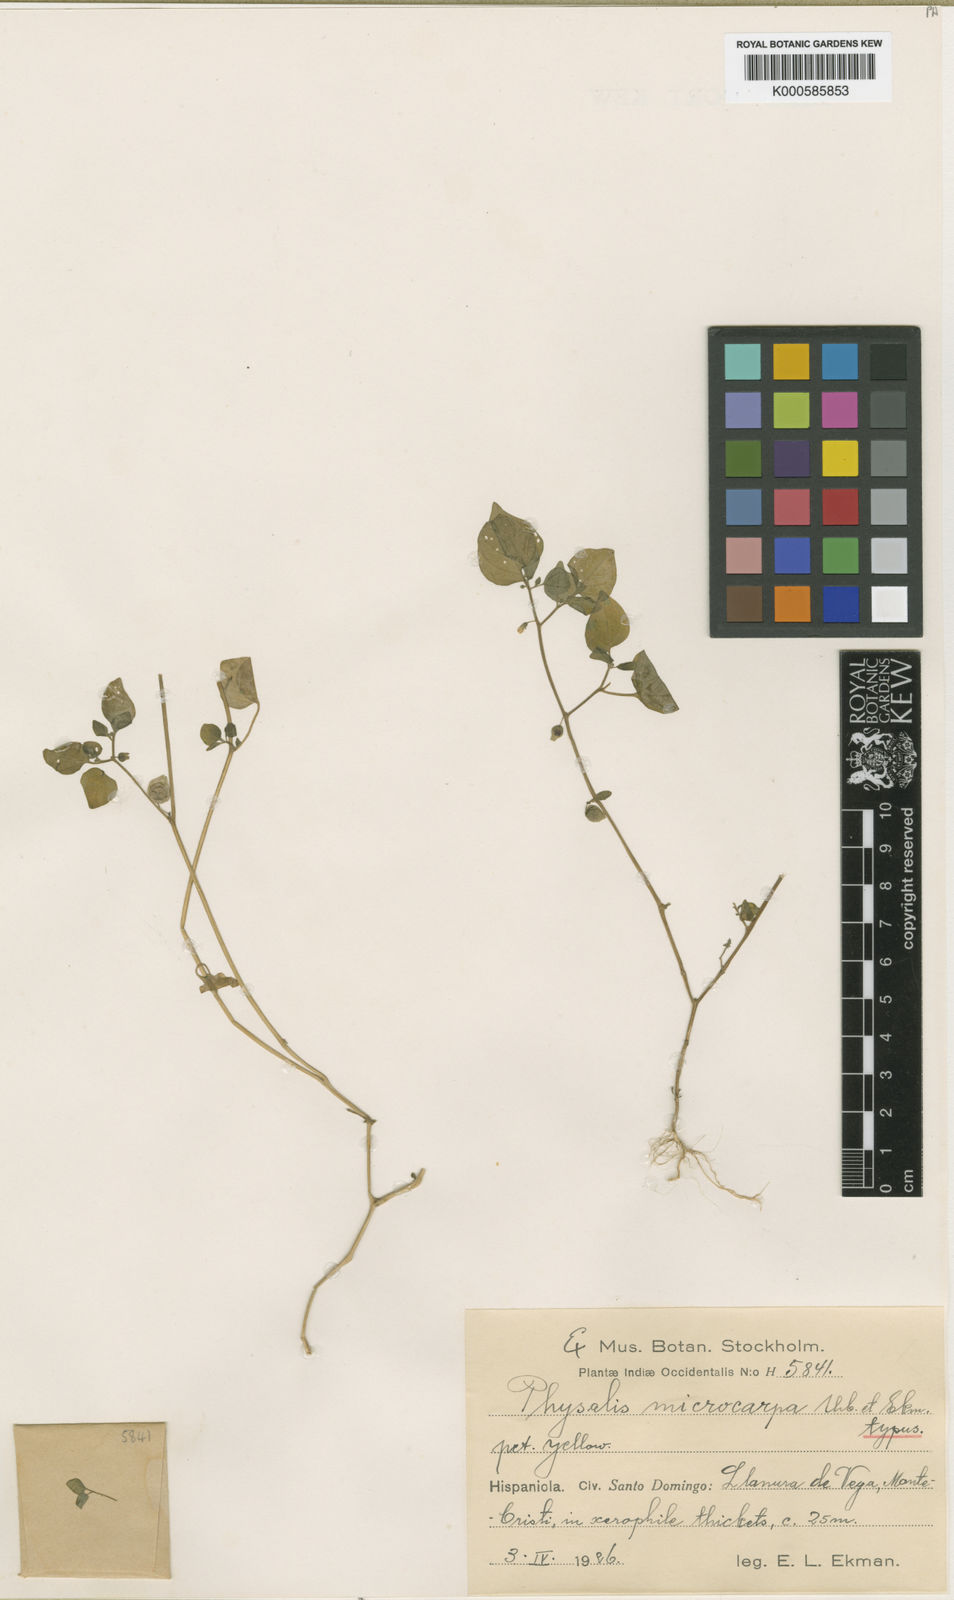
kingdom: Plantae
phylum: Tracheophyta
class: Magnoliopsida
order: Solanales
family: Solanaceae
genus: Physalis
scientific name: Physalis microcarpa
